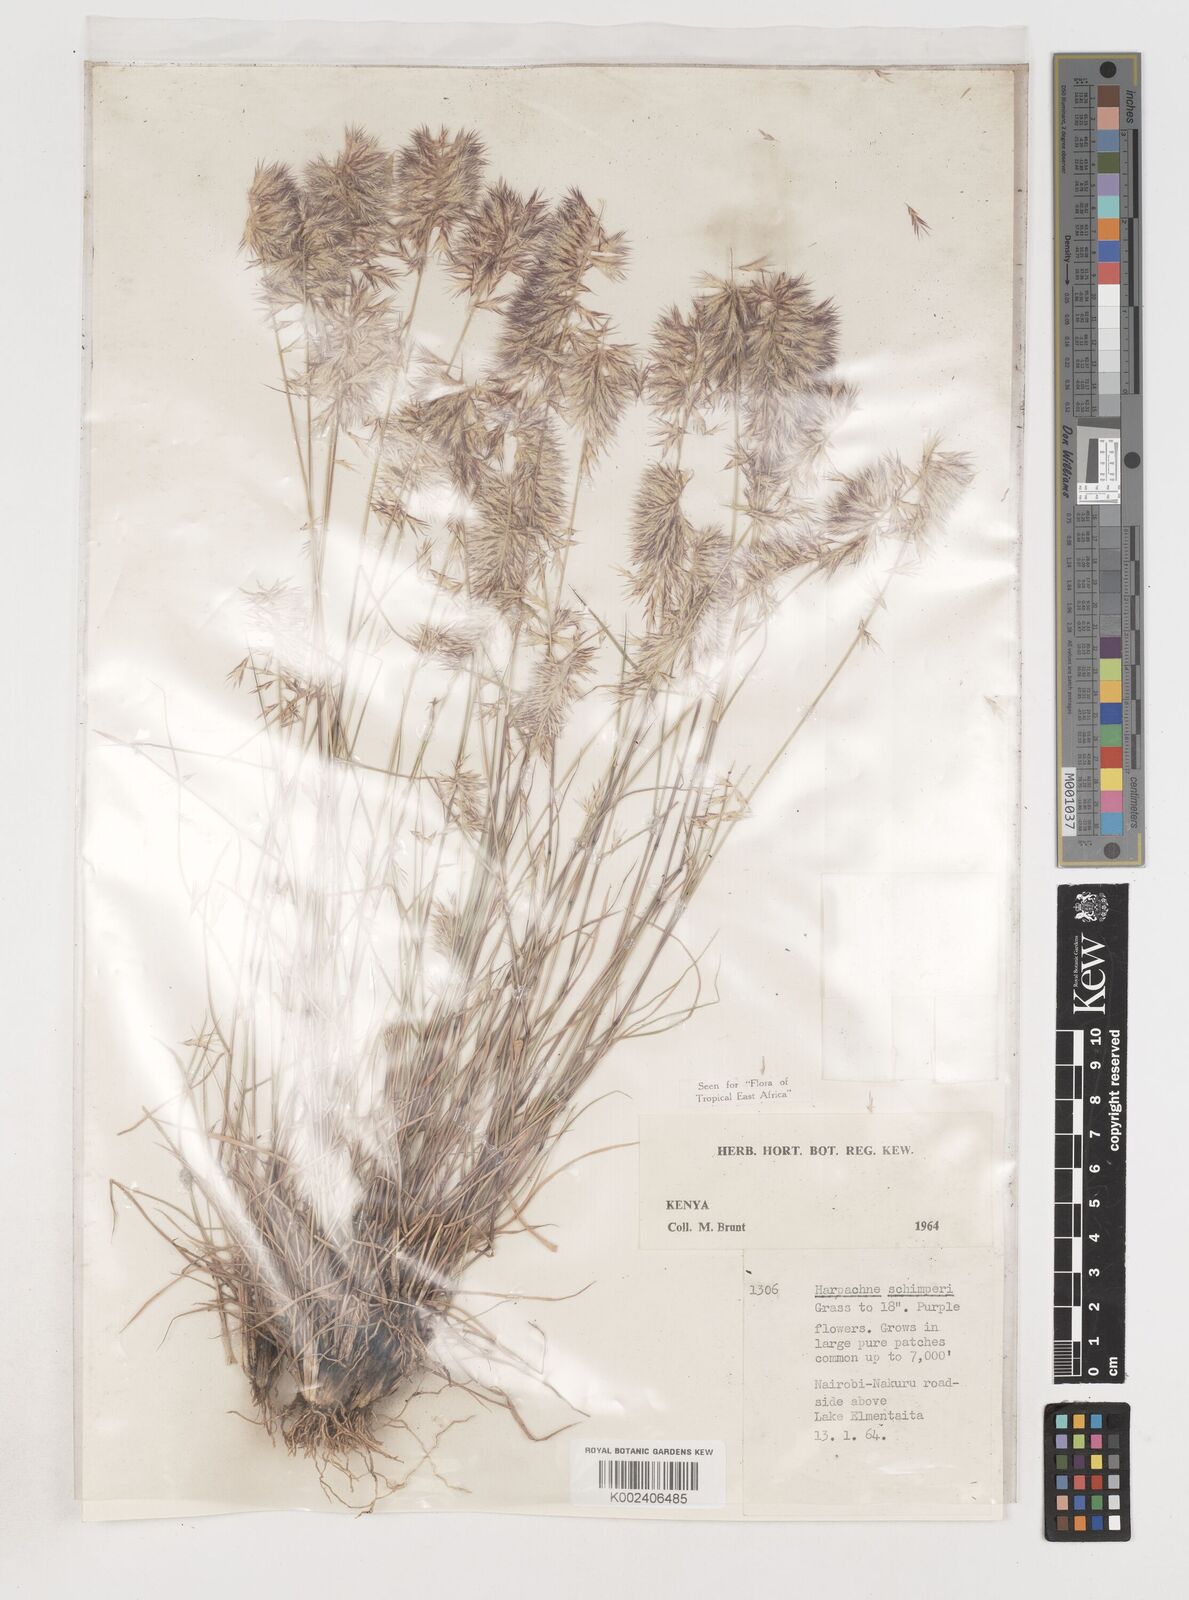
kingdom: Plantae
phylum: Tracheophyta
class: Liliopsida
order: Poales
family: Poaceae
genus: Harpachne
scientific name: Harpachne schimperi
